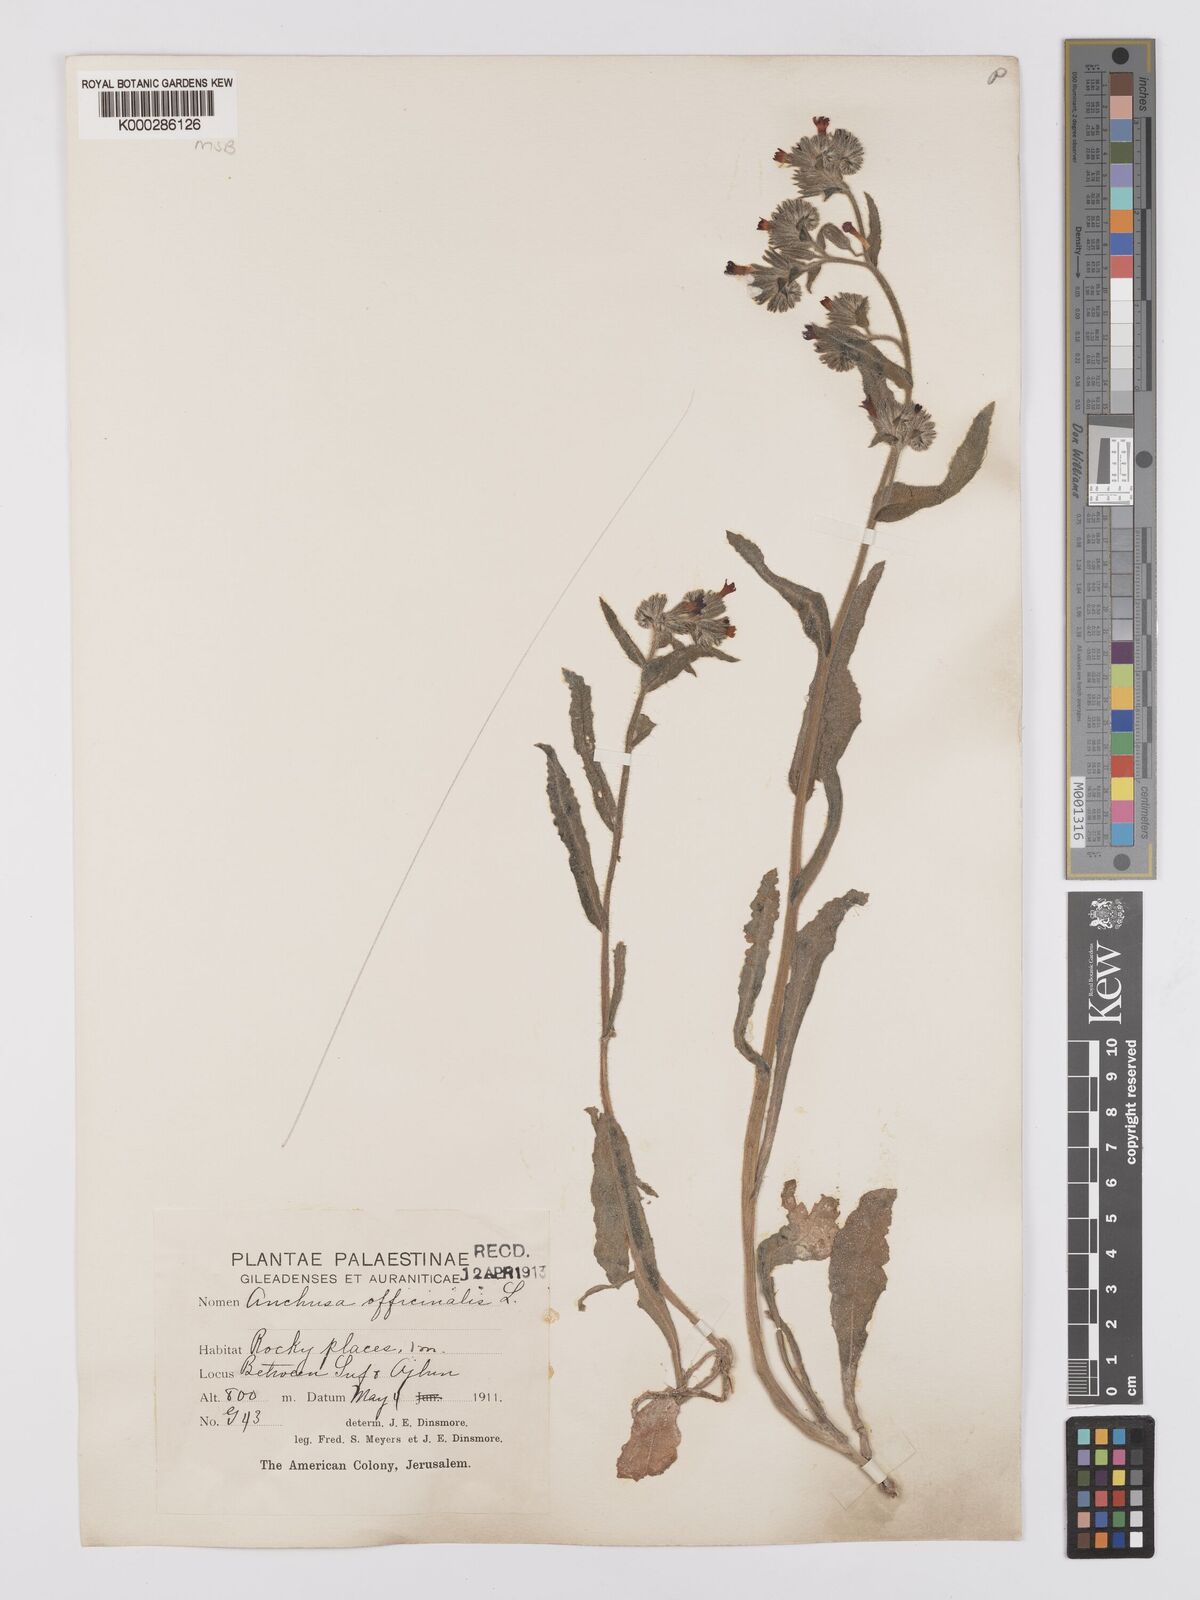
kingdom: Plantae
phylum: Tracheophyta
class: Magnoliopsida
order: Boraginales
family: Boraginaceae
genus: Anchusa
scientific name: Anchusa undulata
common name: Undulate alkanet
